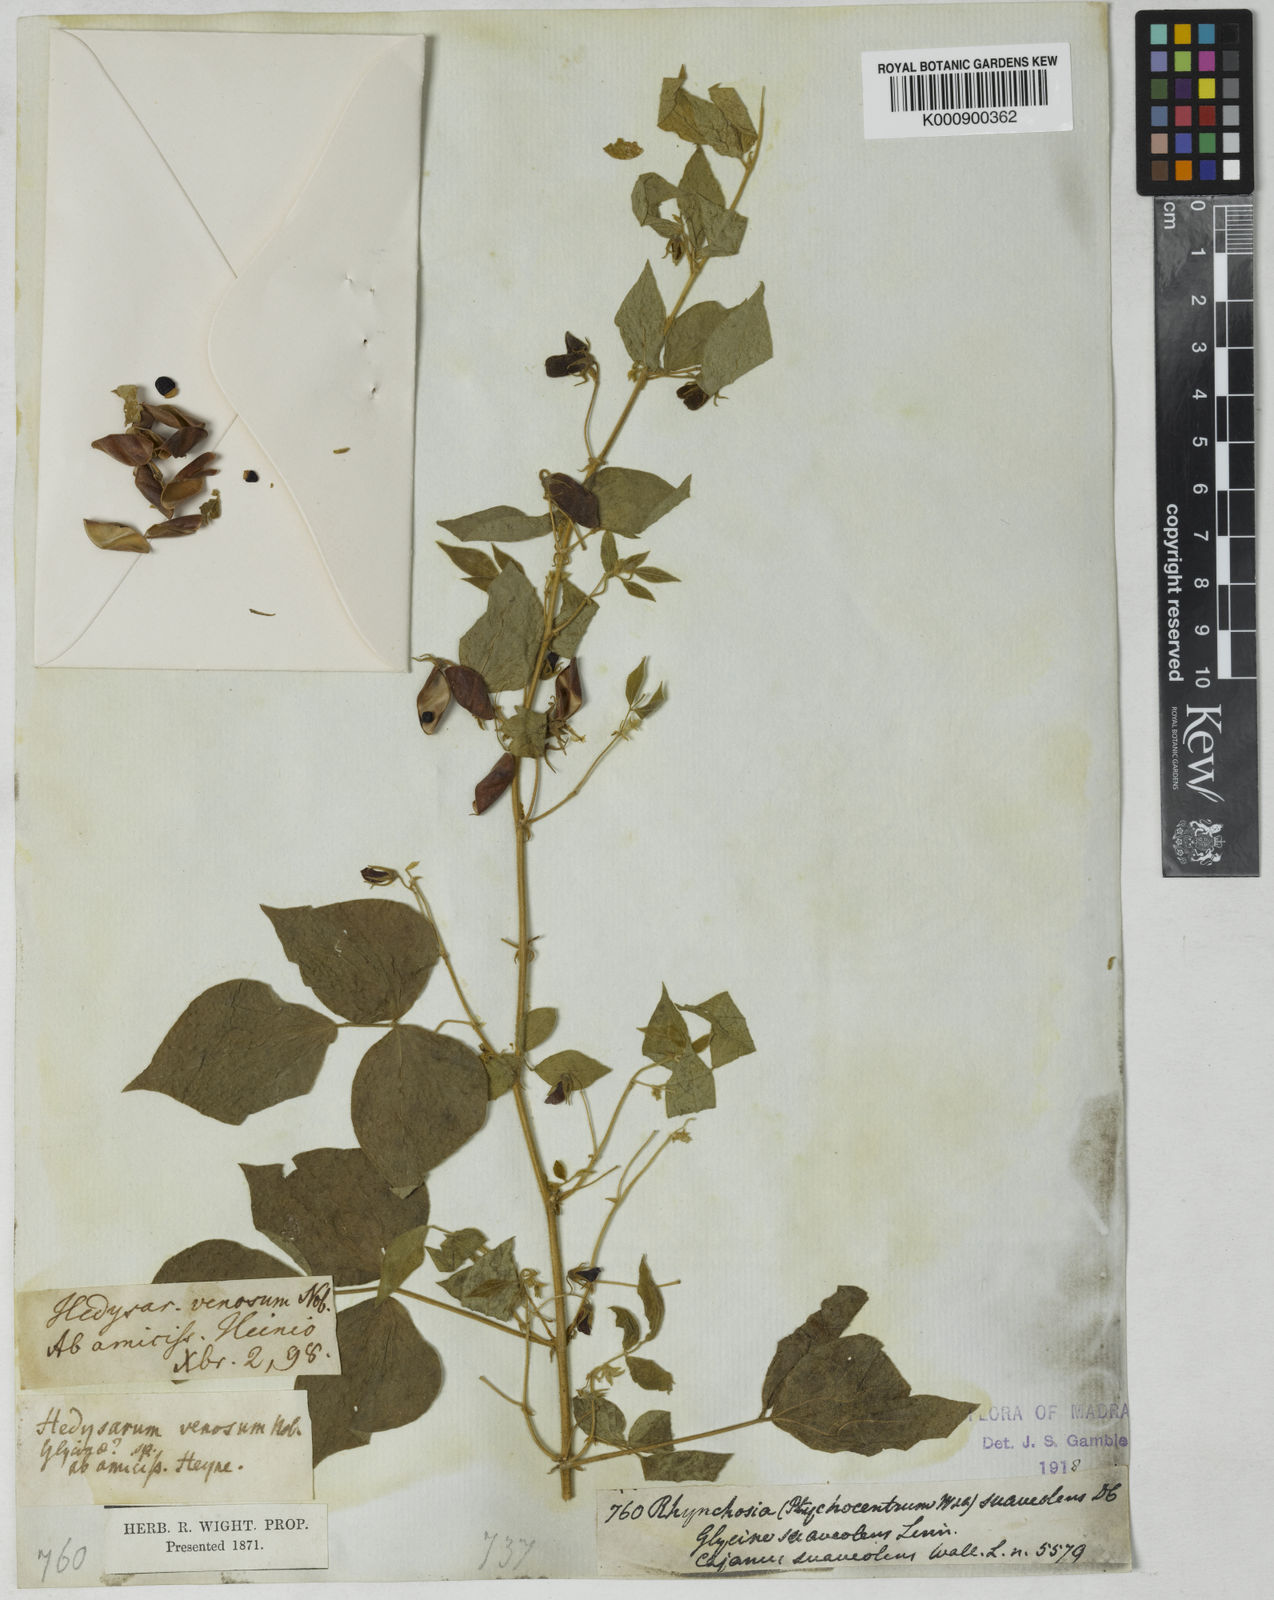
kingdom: Plantae
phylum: Tracheophyta
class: Magnoliopsida
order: Fabales
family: Fabaceae
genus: Rhynchosia
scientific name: Rhynchosia suaveolens
